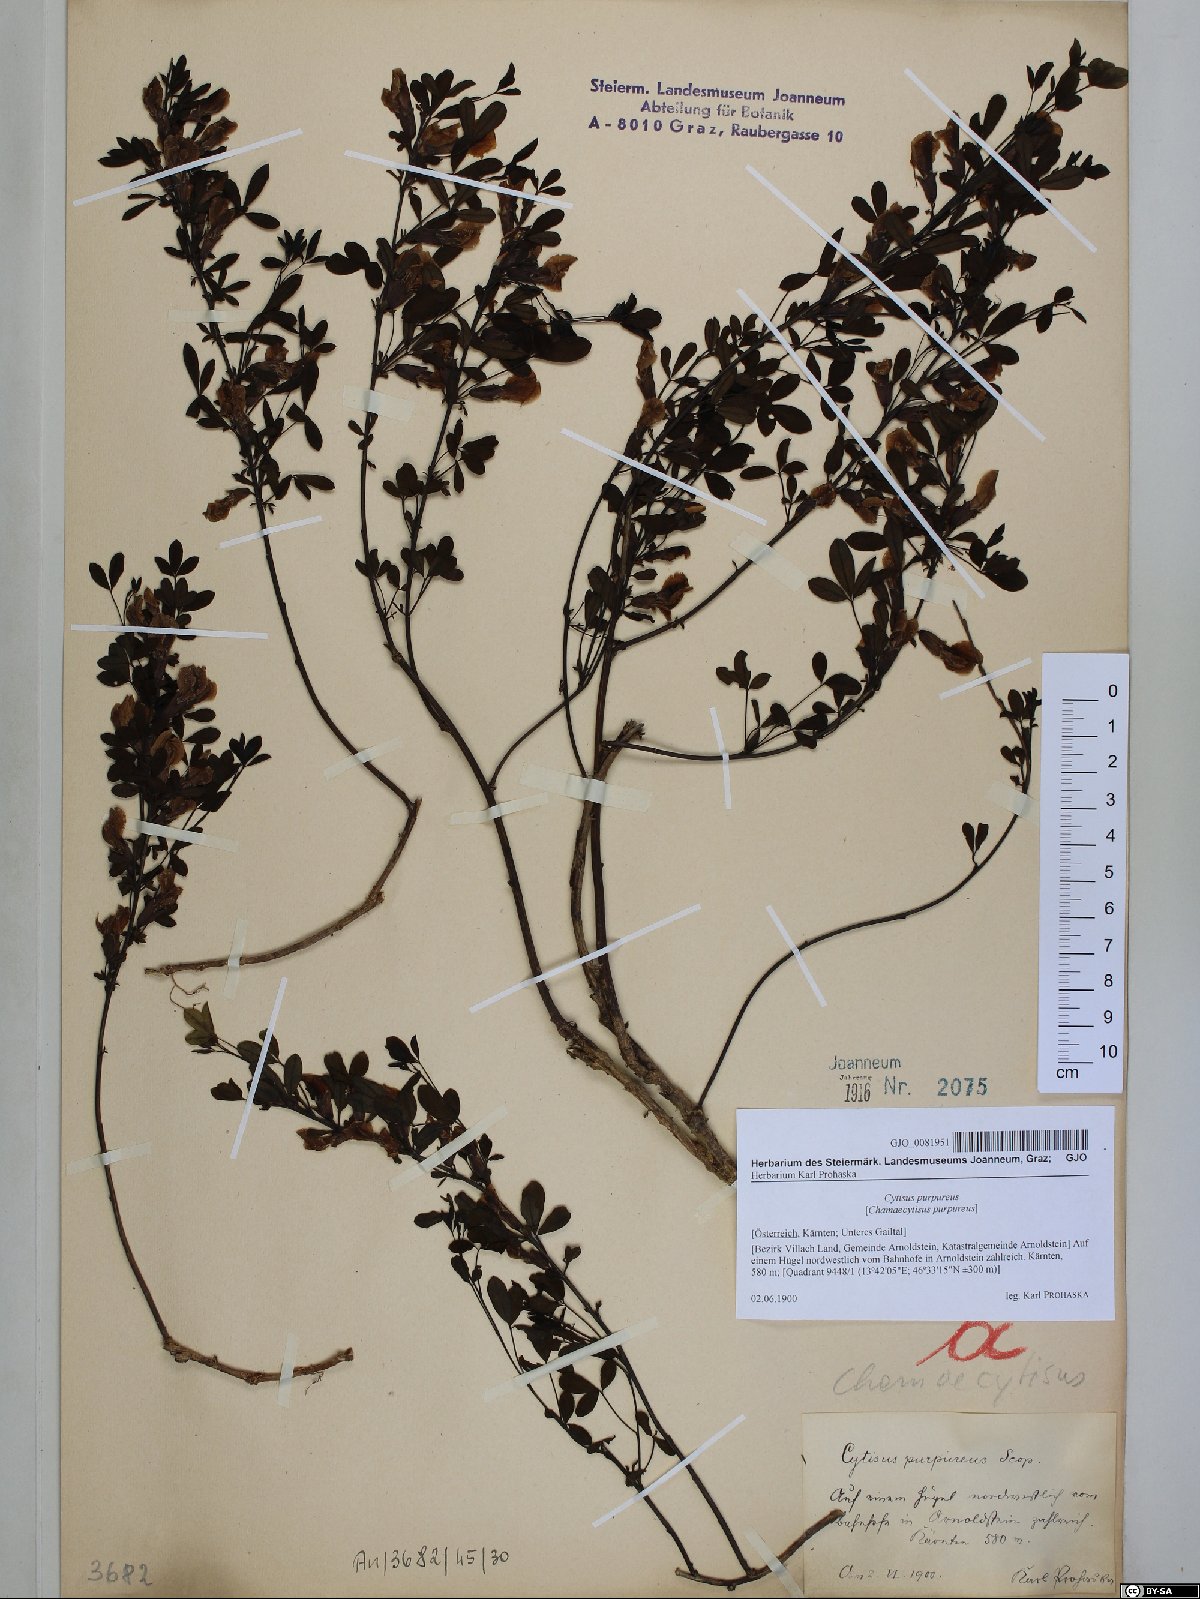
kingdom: Plantae
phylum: Tracheophyta
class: Magnoliopsida
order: Fabales
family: Fabaceae
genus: Chamaecytisus
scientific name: Chamaecytisus purpureus
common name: Purple broom
